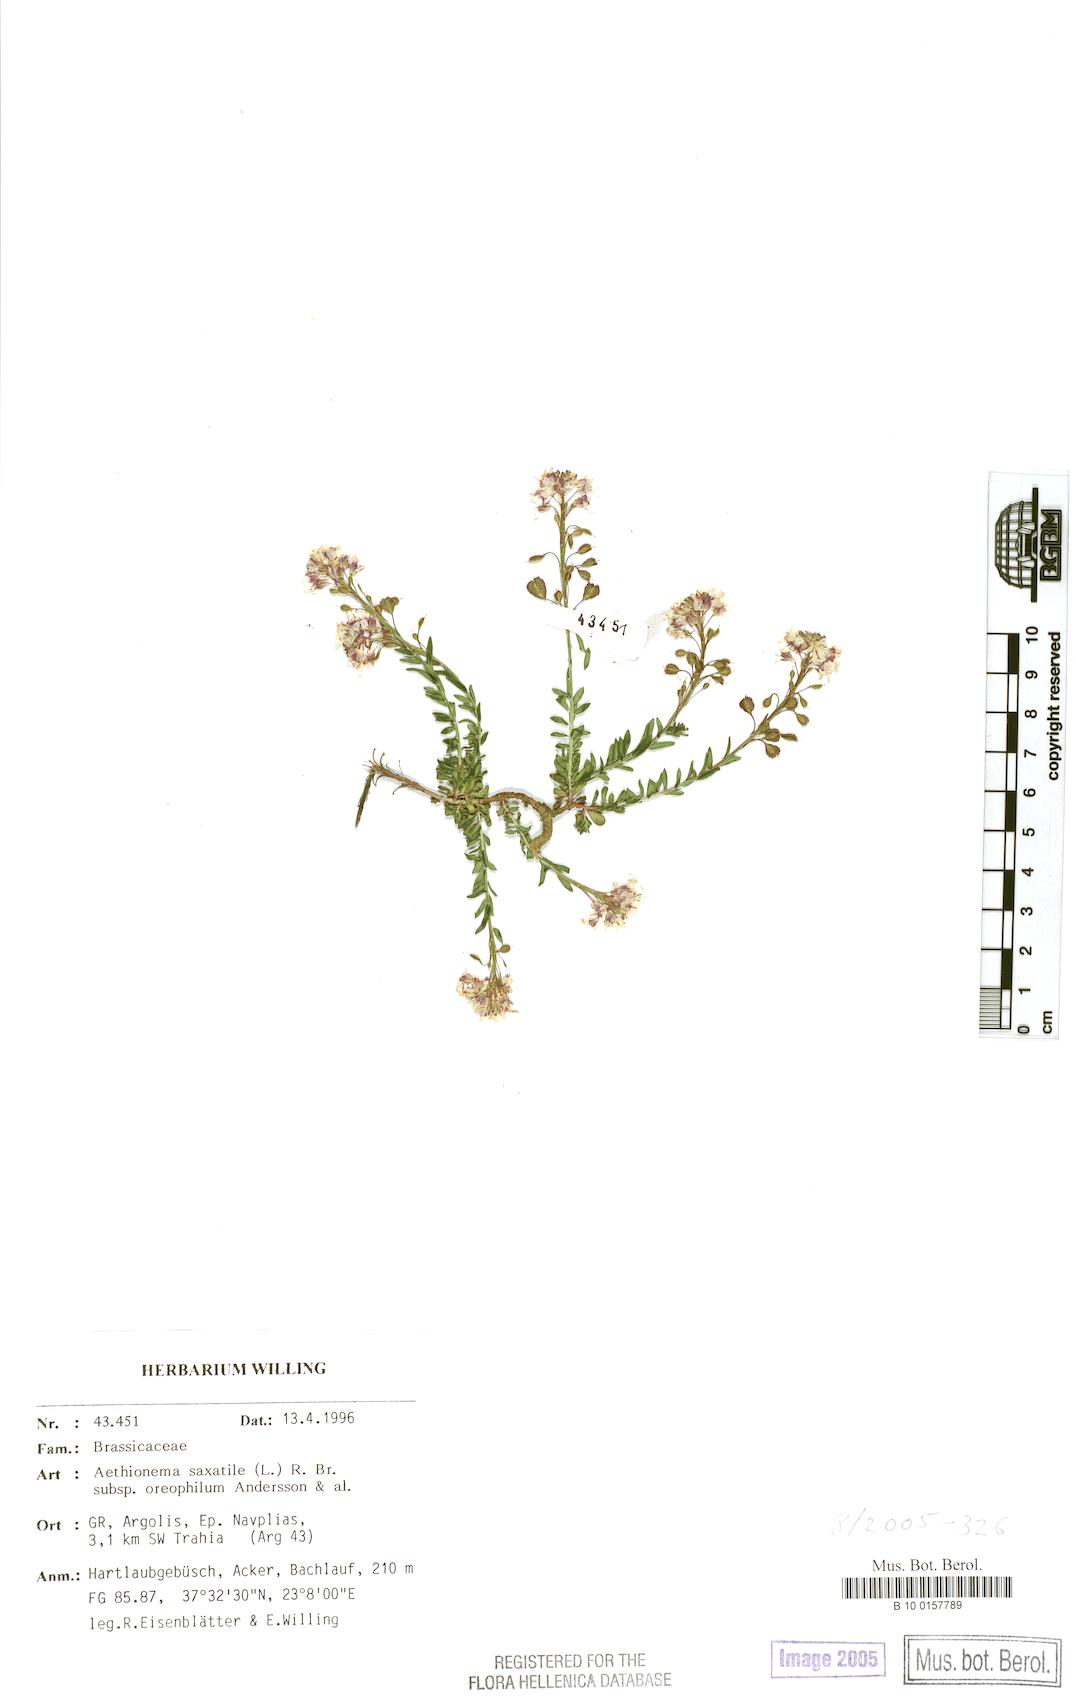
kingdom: Plantae
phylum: Tracheophyta
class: Magnoliopsida
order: Brassicales
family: Brassicaceae
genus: Aethionema
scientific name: Aethionema saxatile
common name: Burnt candytuft
